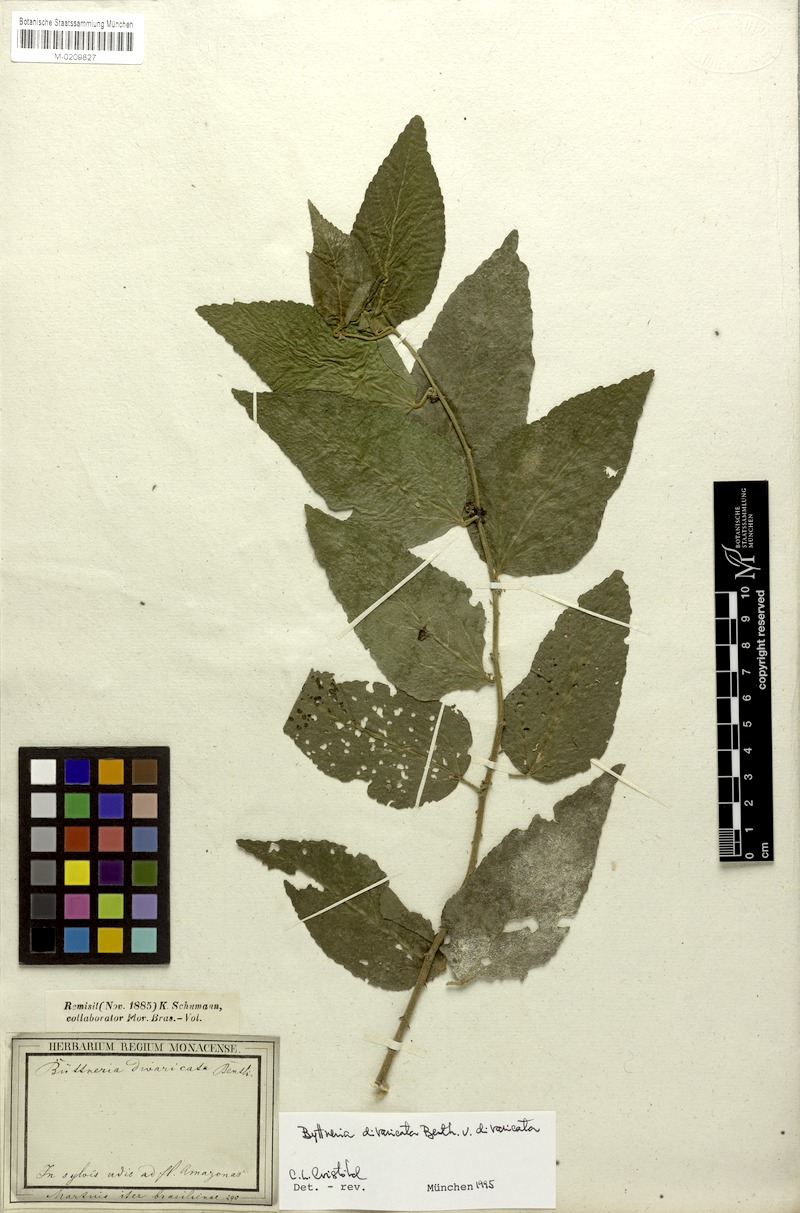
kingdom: Plantae
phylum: Tracheophyta
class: Magnoliopsida
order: Malvales
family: Malvaceae
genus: Byttneria
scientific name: Byttneria divaricata
